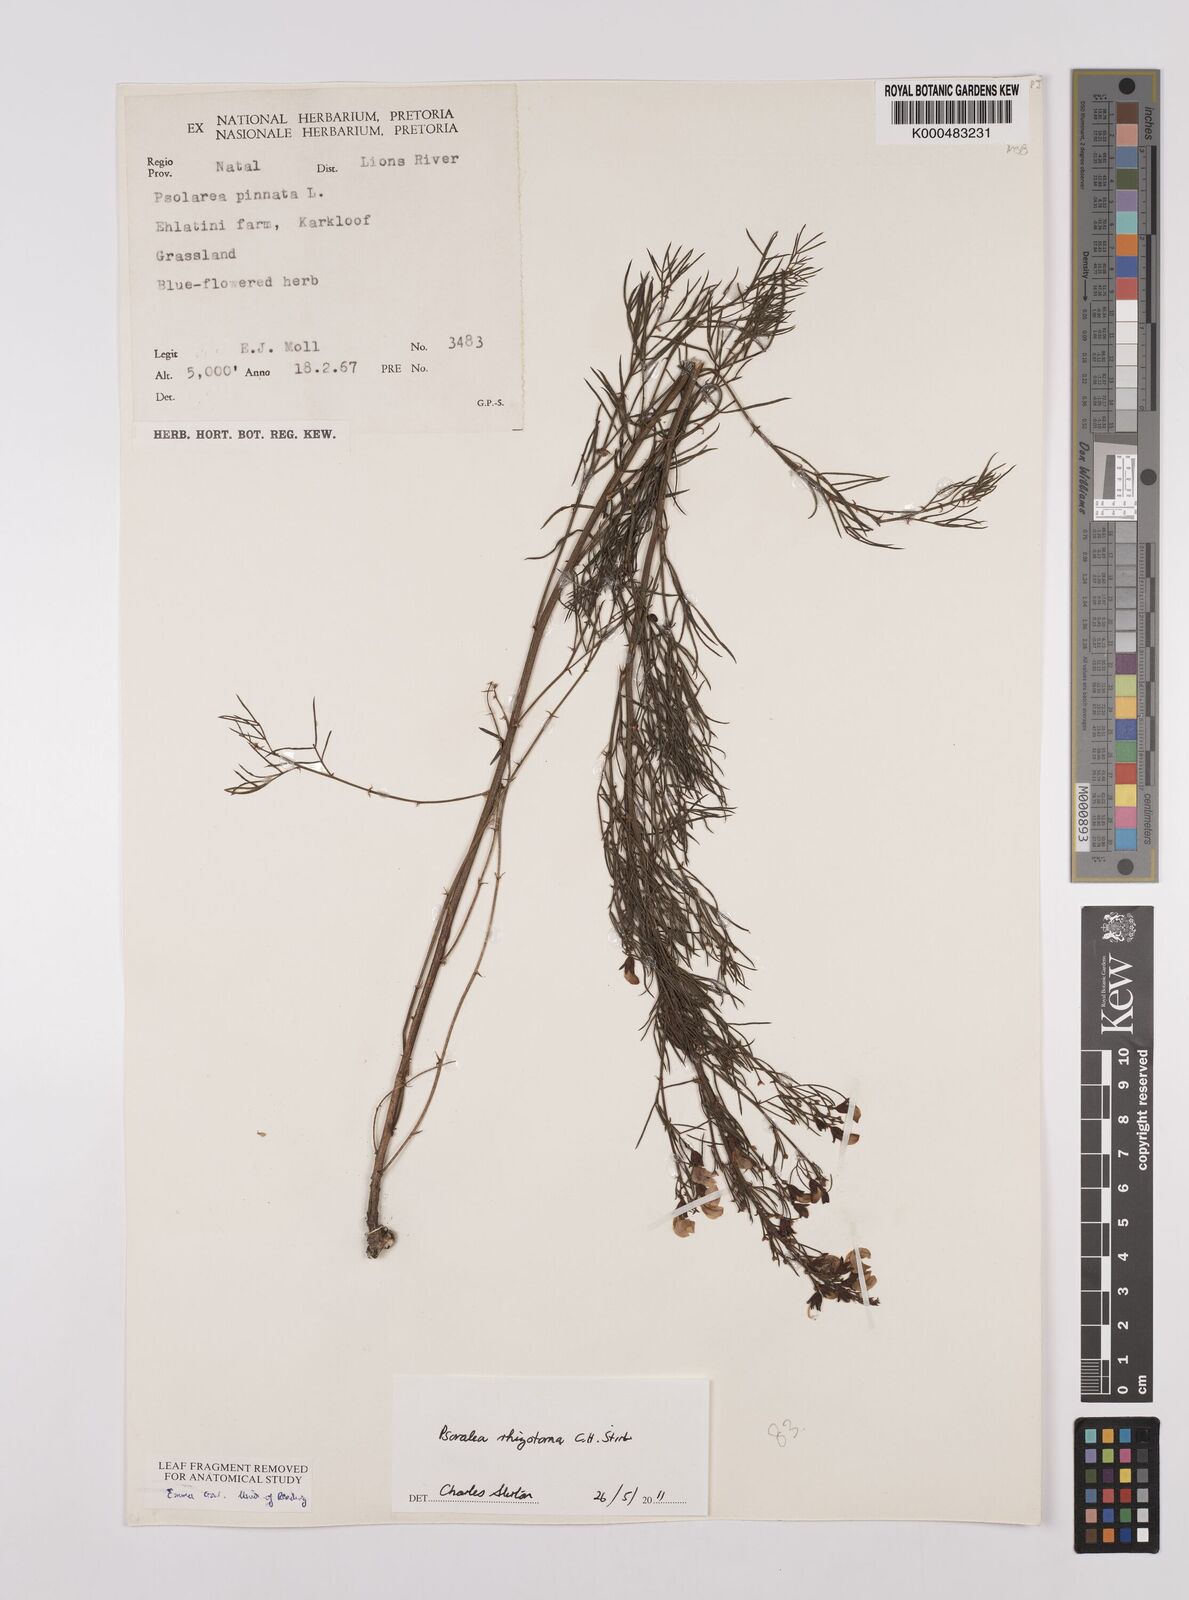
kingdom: Plantae
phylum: Tracheophyta
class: Magnoliopsida
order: Fabales
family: Fabaceae
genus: Psoralea
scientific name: Psoralea abbottii
